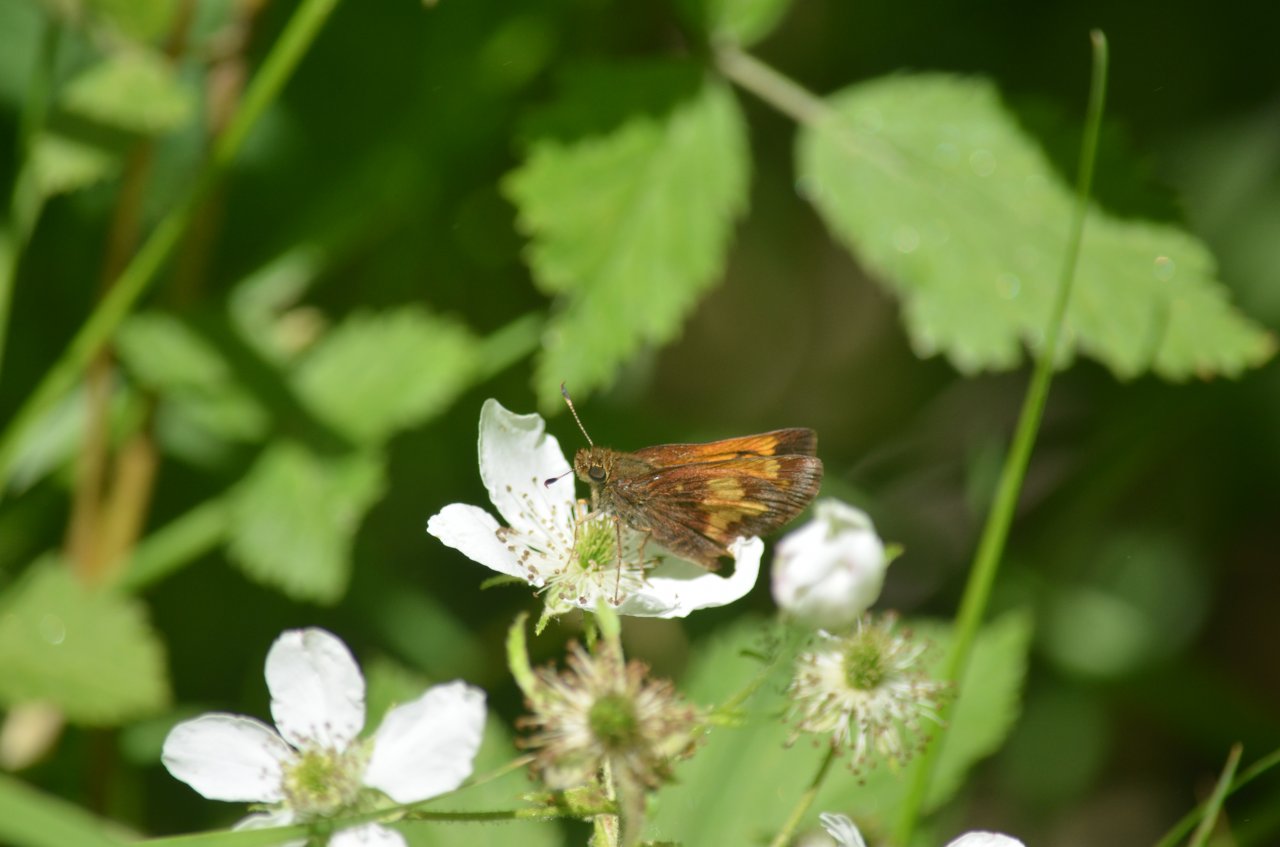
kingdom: Animalia
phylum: Arthropoda
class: Insecta
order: Lepidoptera
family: Hesperiidae
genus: Lon
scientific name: Lon hobomok
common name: Hobomok Skipper
